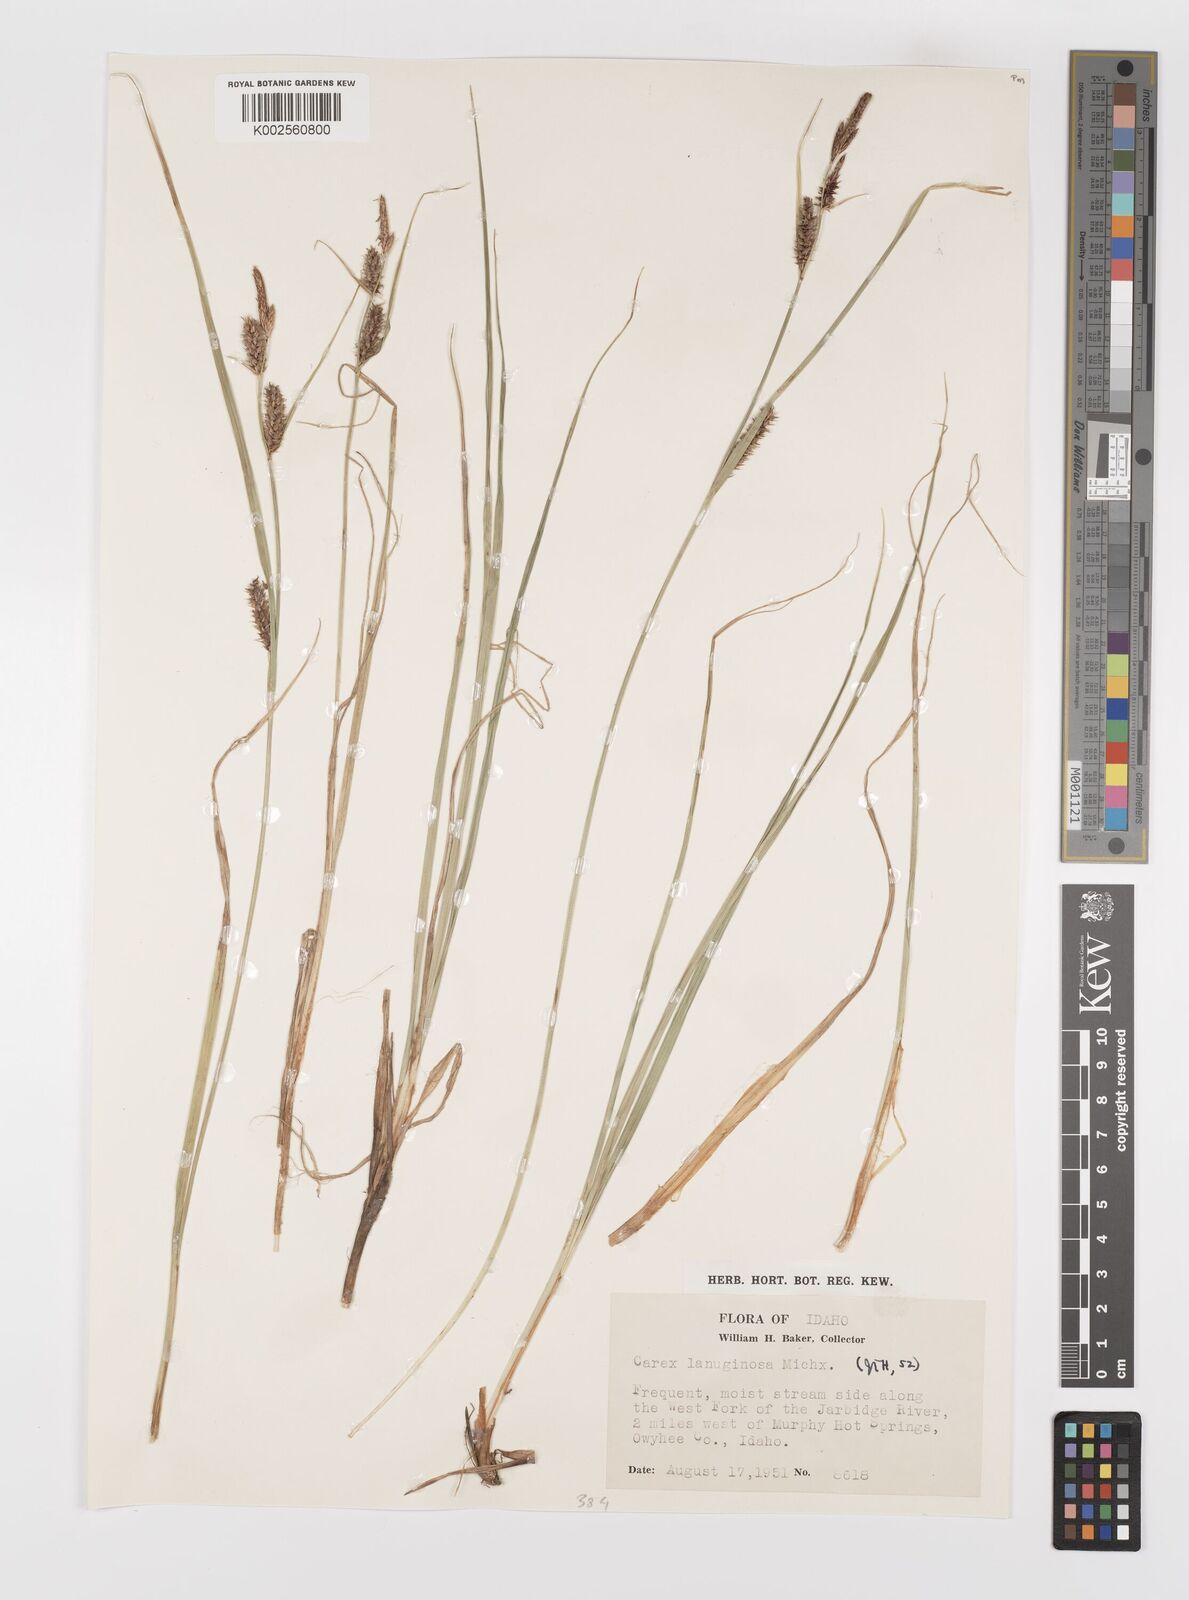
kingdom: Plantae
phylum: Tracheophyta
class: Liliopsida
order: Poales
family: Cyperaceae
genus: Carex
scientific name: Carex lasiocarpa
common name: Slender sedge
